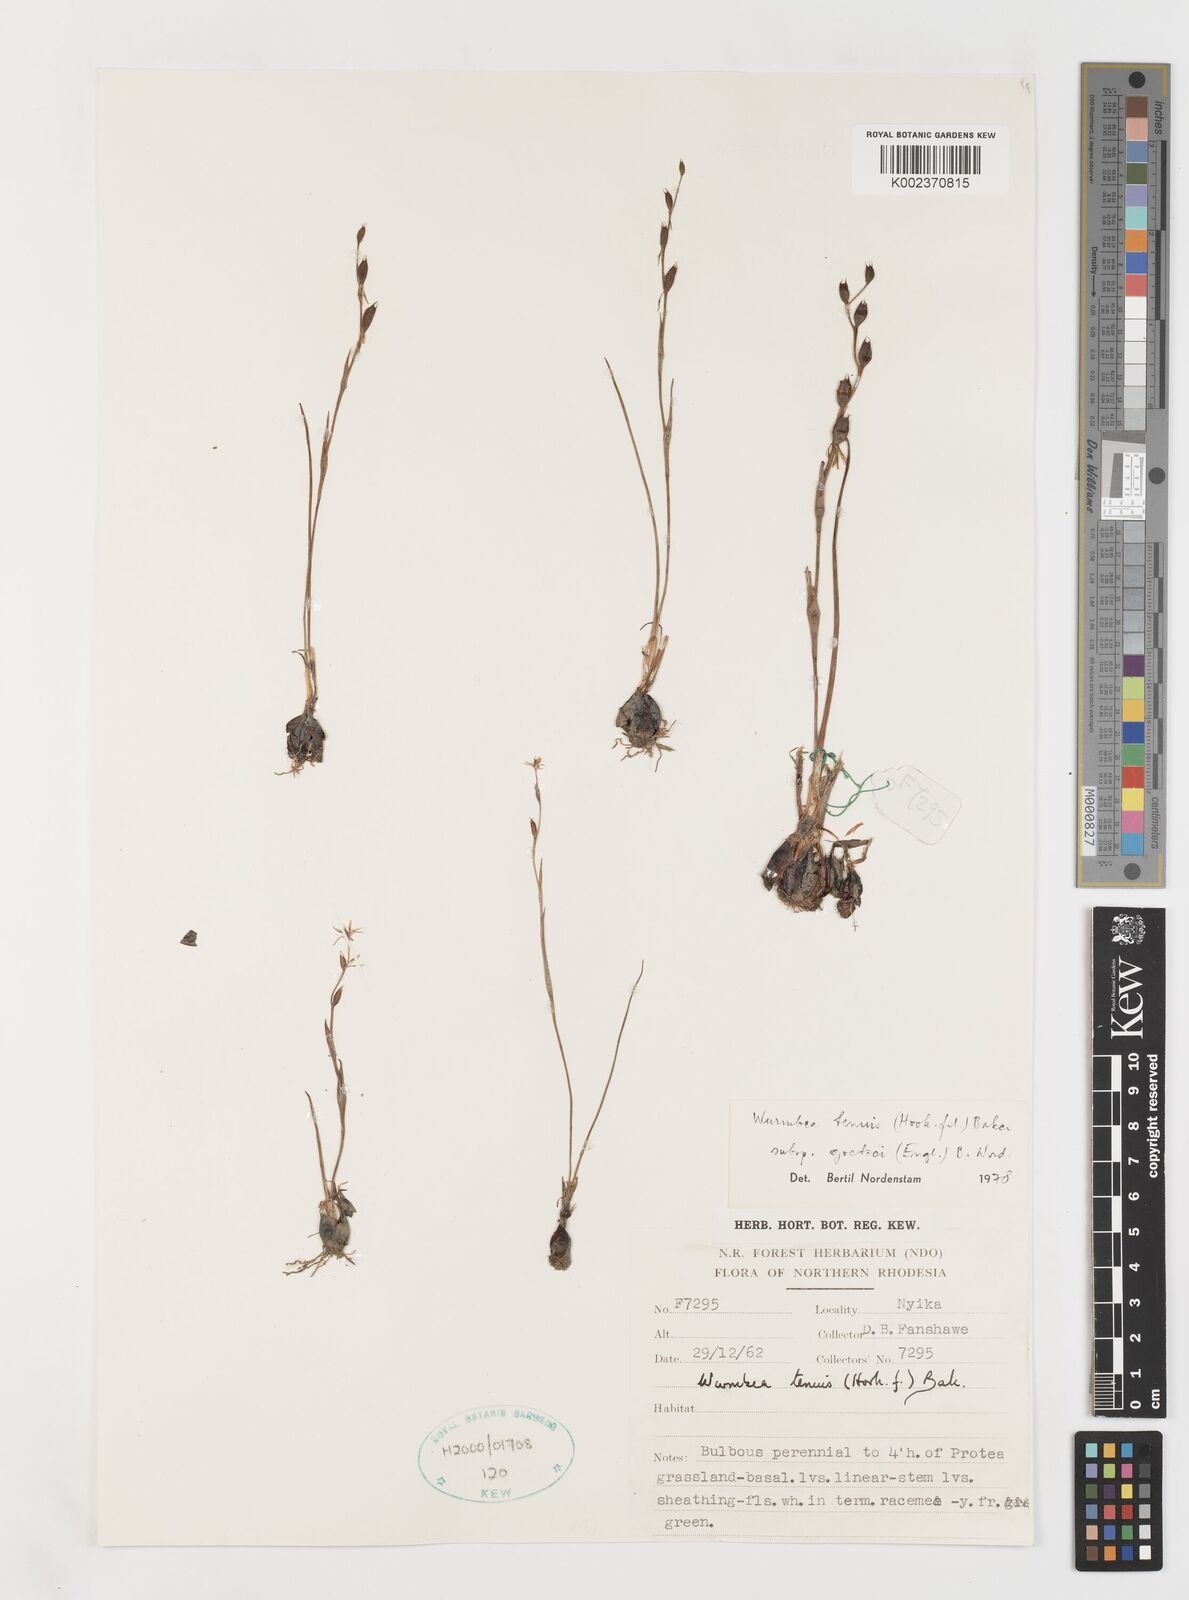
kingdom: Plantae
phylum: Tracheophyta
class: Liliopsida
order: Liliales
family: Colchicaceae
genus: Wurmbea
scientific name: Wurmbea tenuis
